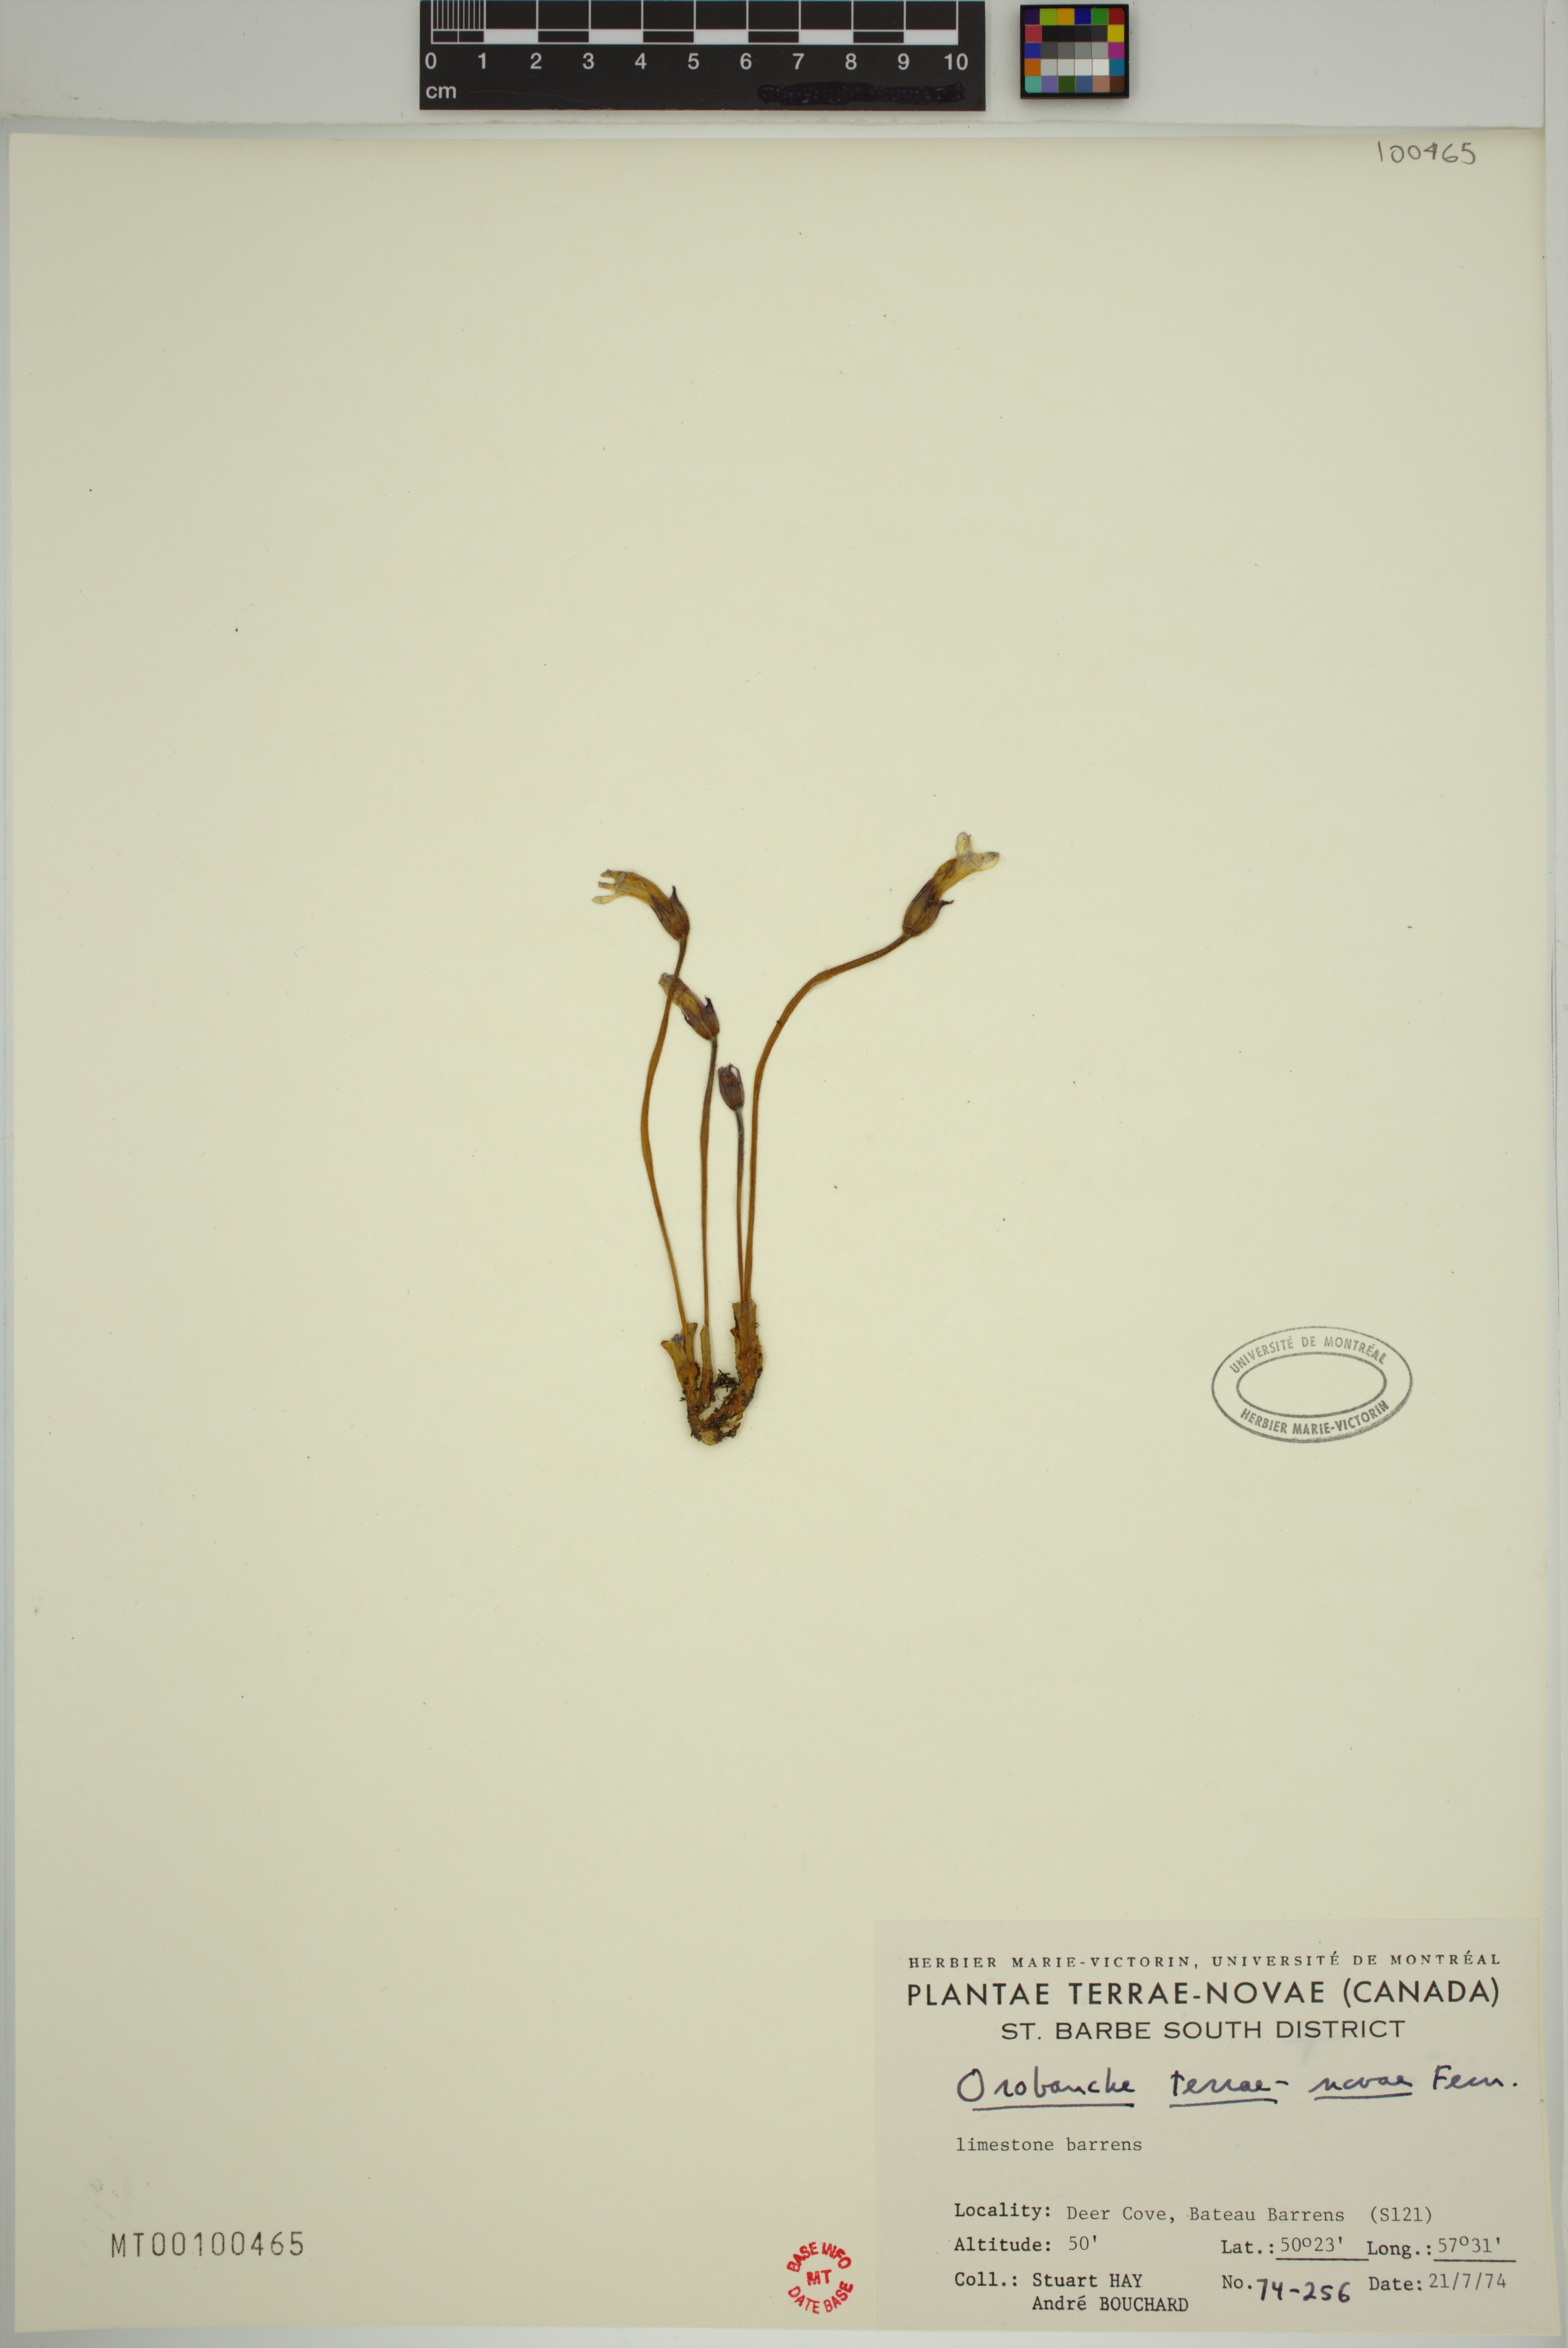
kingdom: Plantae
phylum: Tracheophyta
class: Magnoliopsida
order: Lamiales
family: Orobanchaceae
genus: Aphyllon
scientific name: Aphyllon uniflorum
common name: One-flowered broomrape
